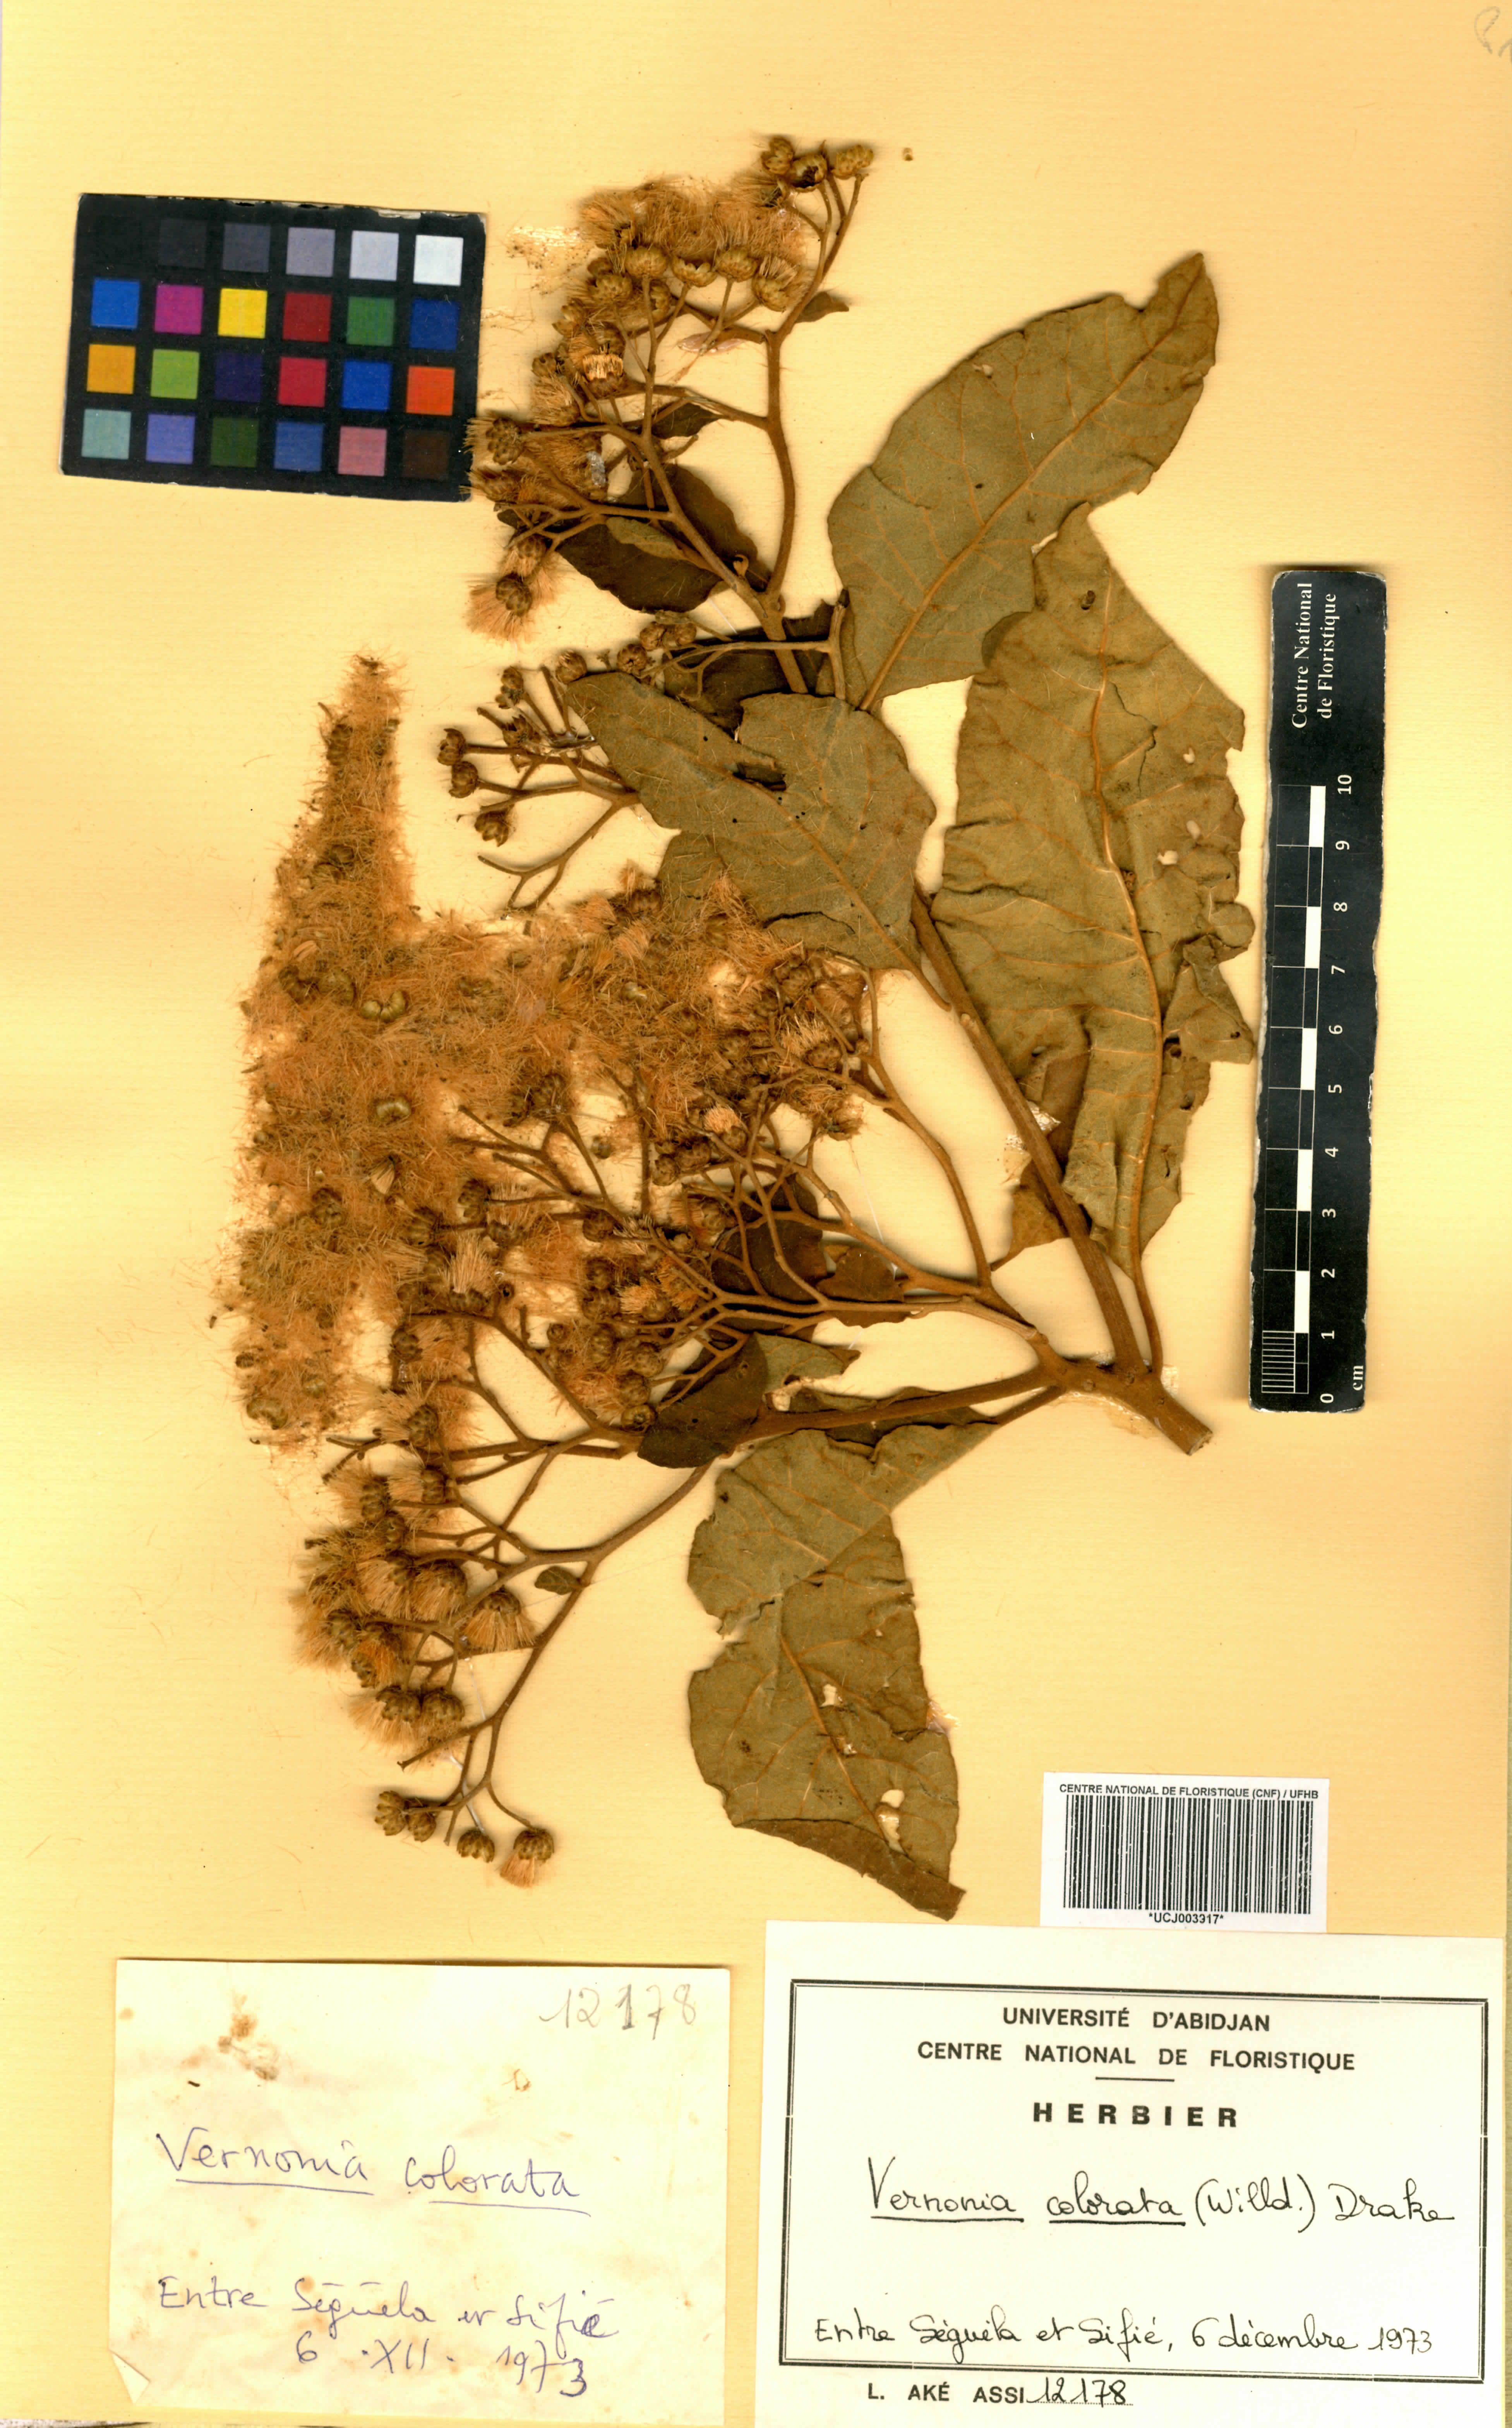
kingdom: Plantae
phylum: Tracheophyta
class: Magnoliopsida
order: Asterales
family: Asteraceae
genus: Vernonia
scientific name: Vernonia colorata
